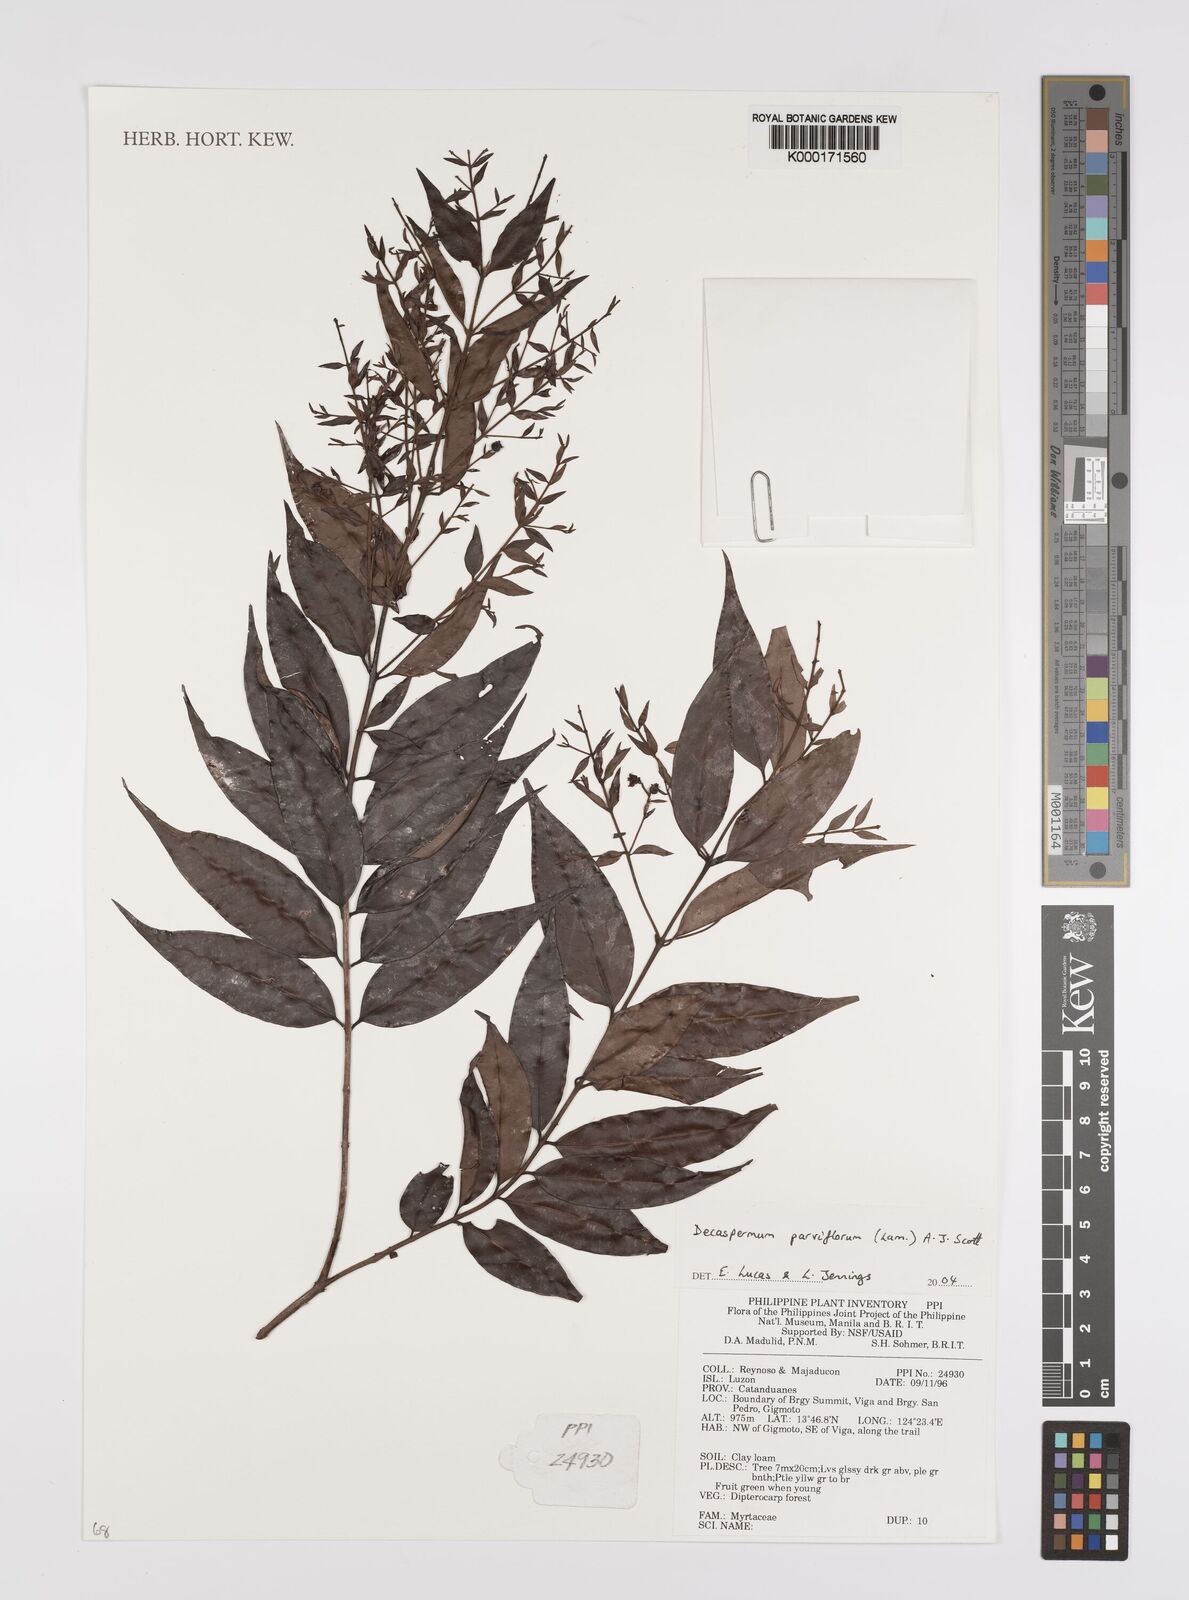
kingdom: Plantae
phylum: Tracheophyta
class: Magnoliopsida
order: Myrtales
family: Myrtaceae
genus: Decaspermum
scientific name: Decaspermum parviflorum
